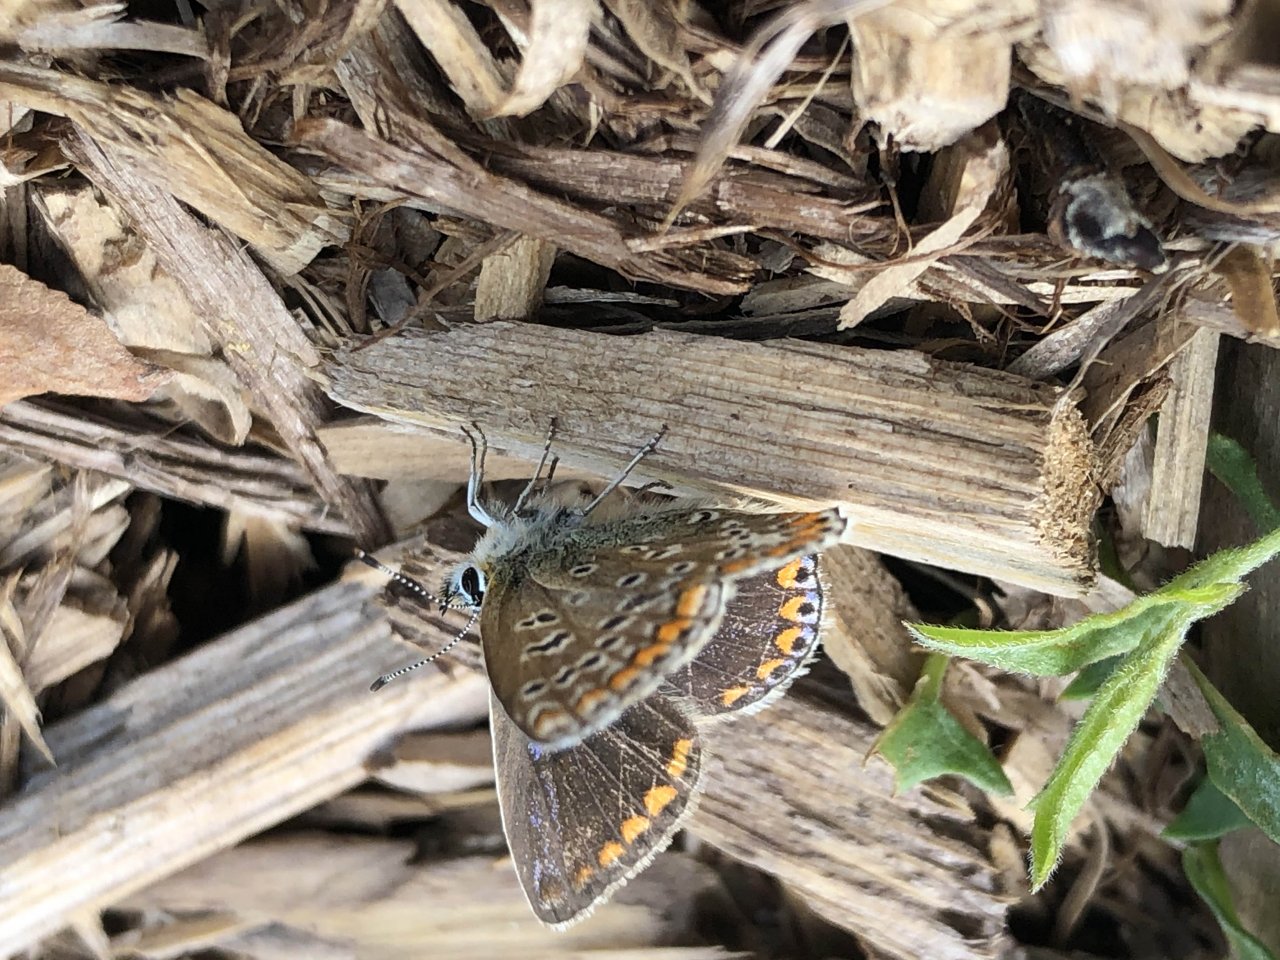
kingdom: Animalia
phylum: Arthropoda
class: Insecta
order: Lepidoptera
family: Lycaenidae
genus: Polyommatus
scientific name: Polyommatus icarus
